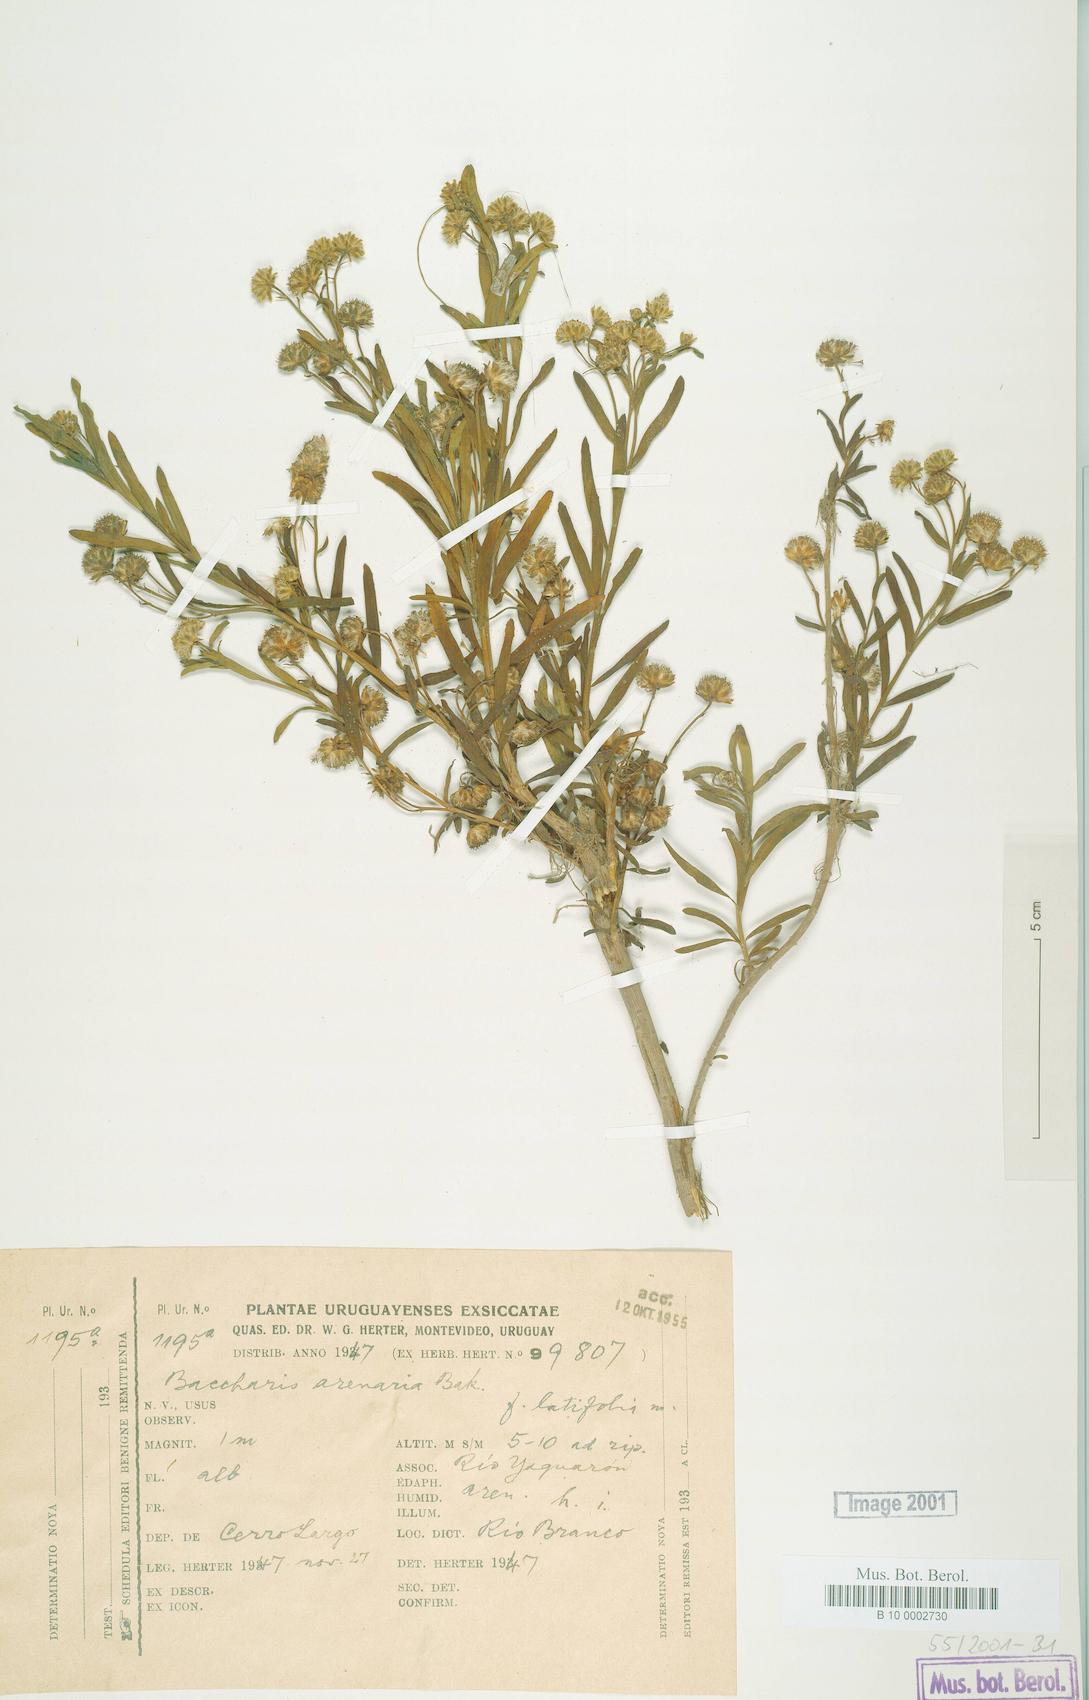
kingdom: Plantae
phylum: Tracheophyta
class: Magnoliopsida
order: Asterales
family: Asteraceae
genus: Baccharis
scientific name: Baccharis arenaria
